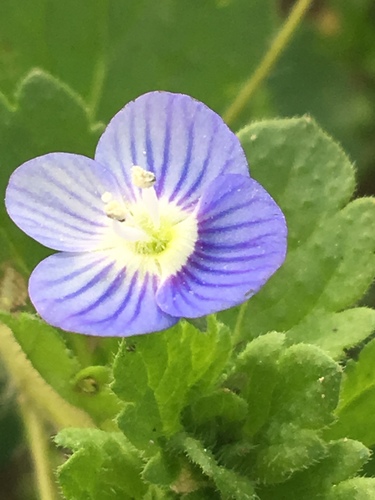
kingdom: Plantae
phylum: Tracheophyta
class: Magnoliopsida
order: Lamiales
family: Plantaginaceae
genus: Veronica
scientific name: Veronica persica
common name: Common field-speedwell
